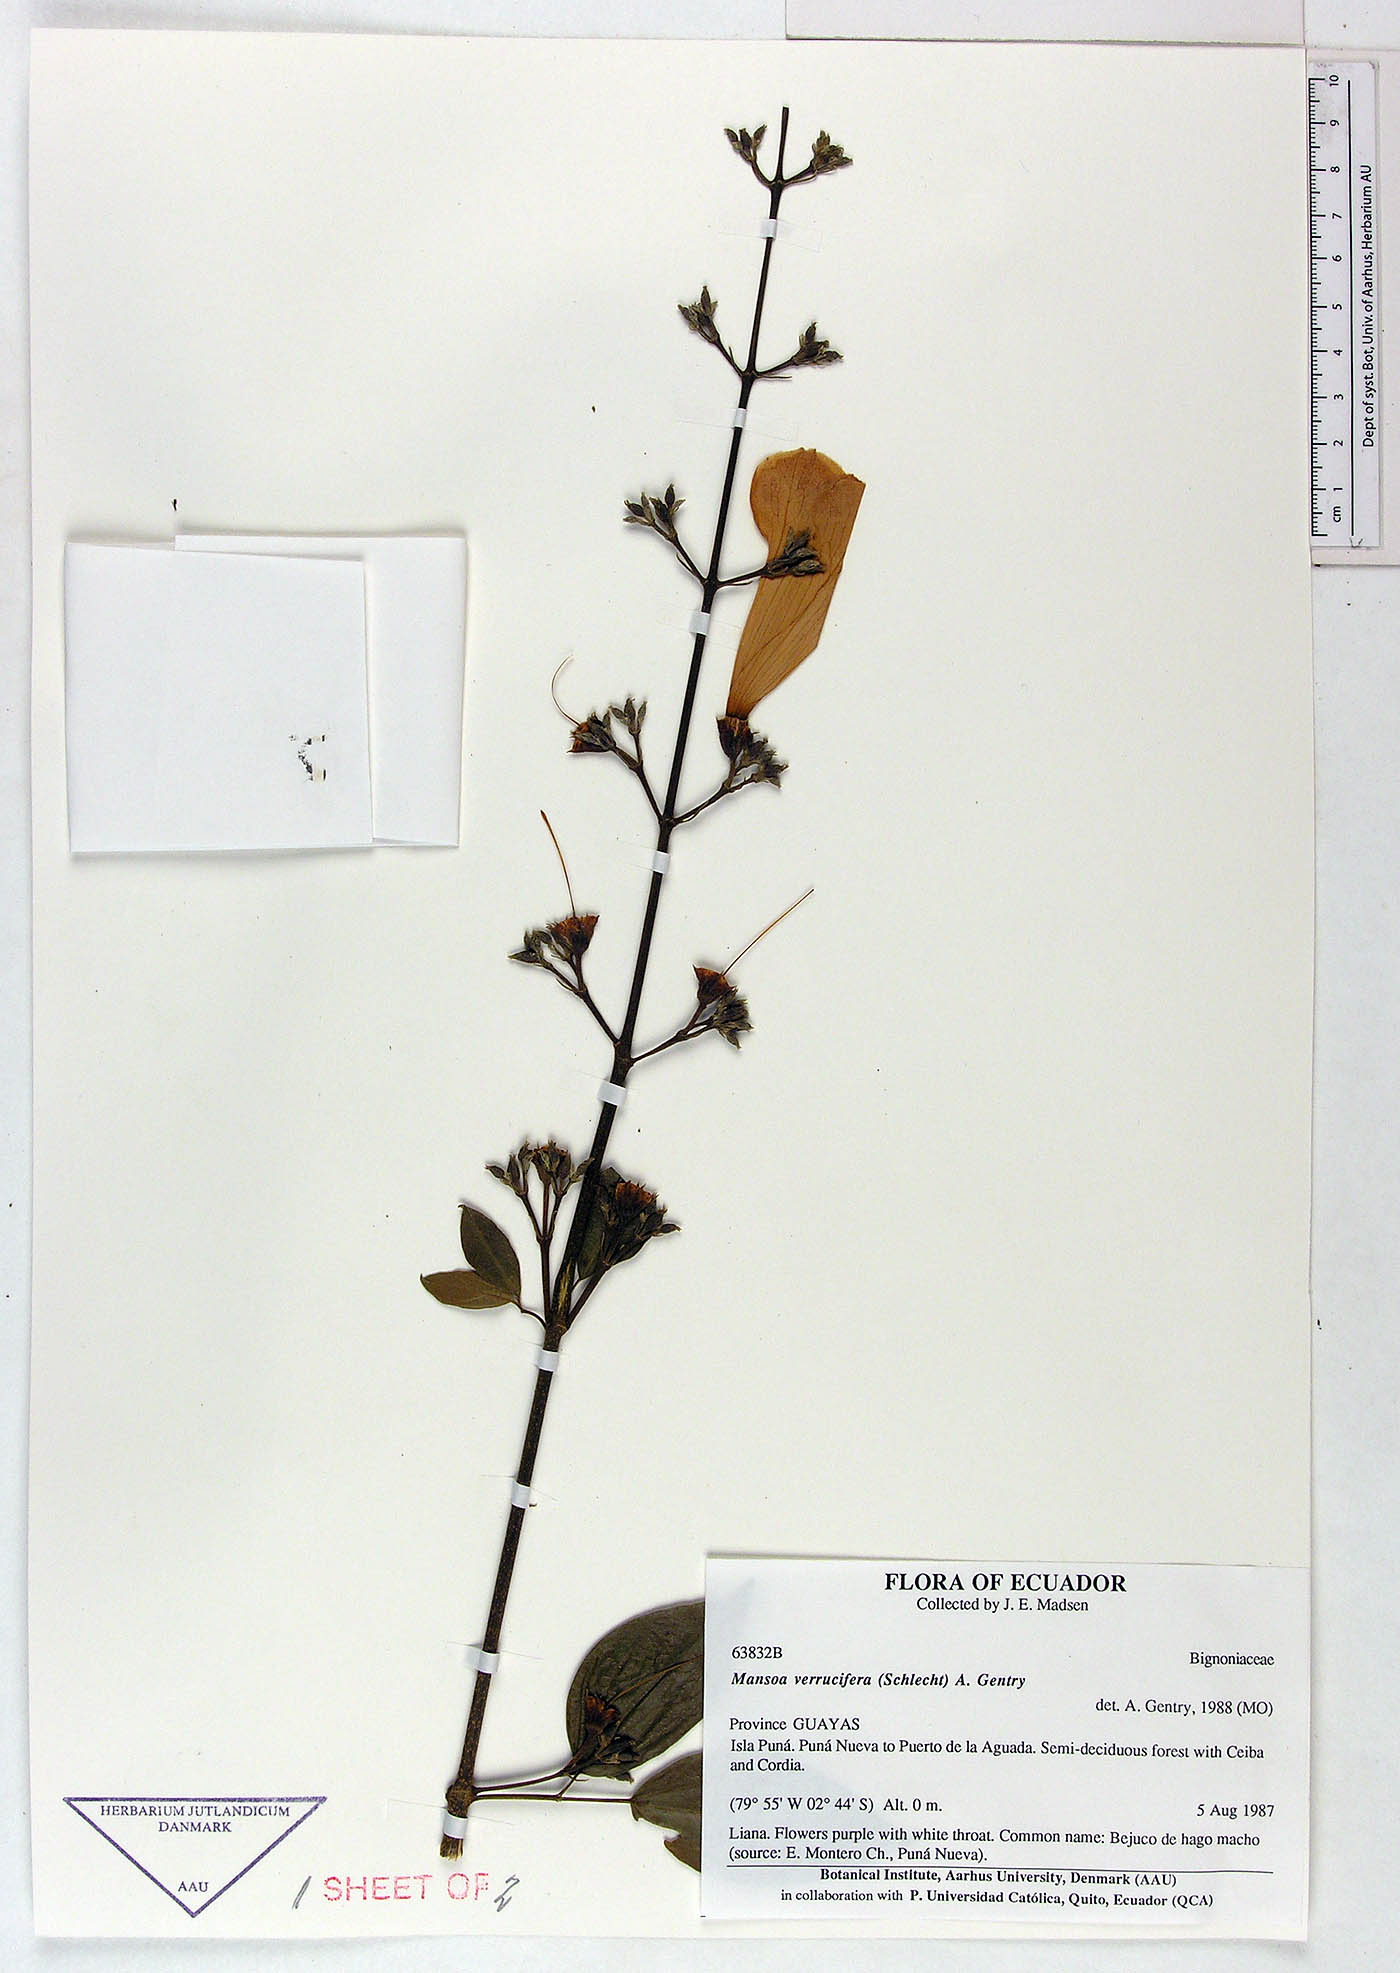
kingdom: Plantae
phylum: Tracheophyta
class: Magnoliopsida
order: Lamiales
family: Bignoniaceae
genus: Mansoa
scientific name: Mansoa verrucifera
